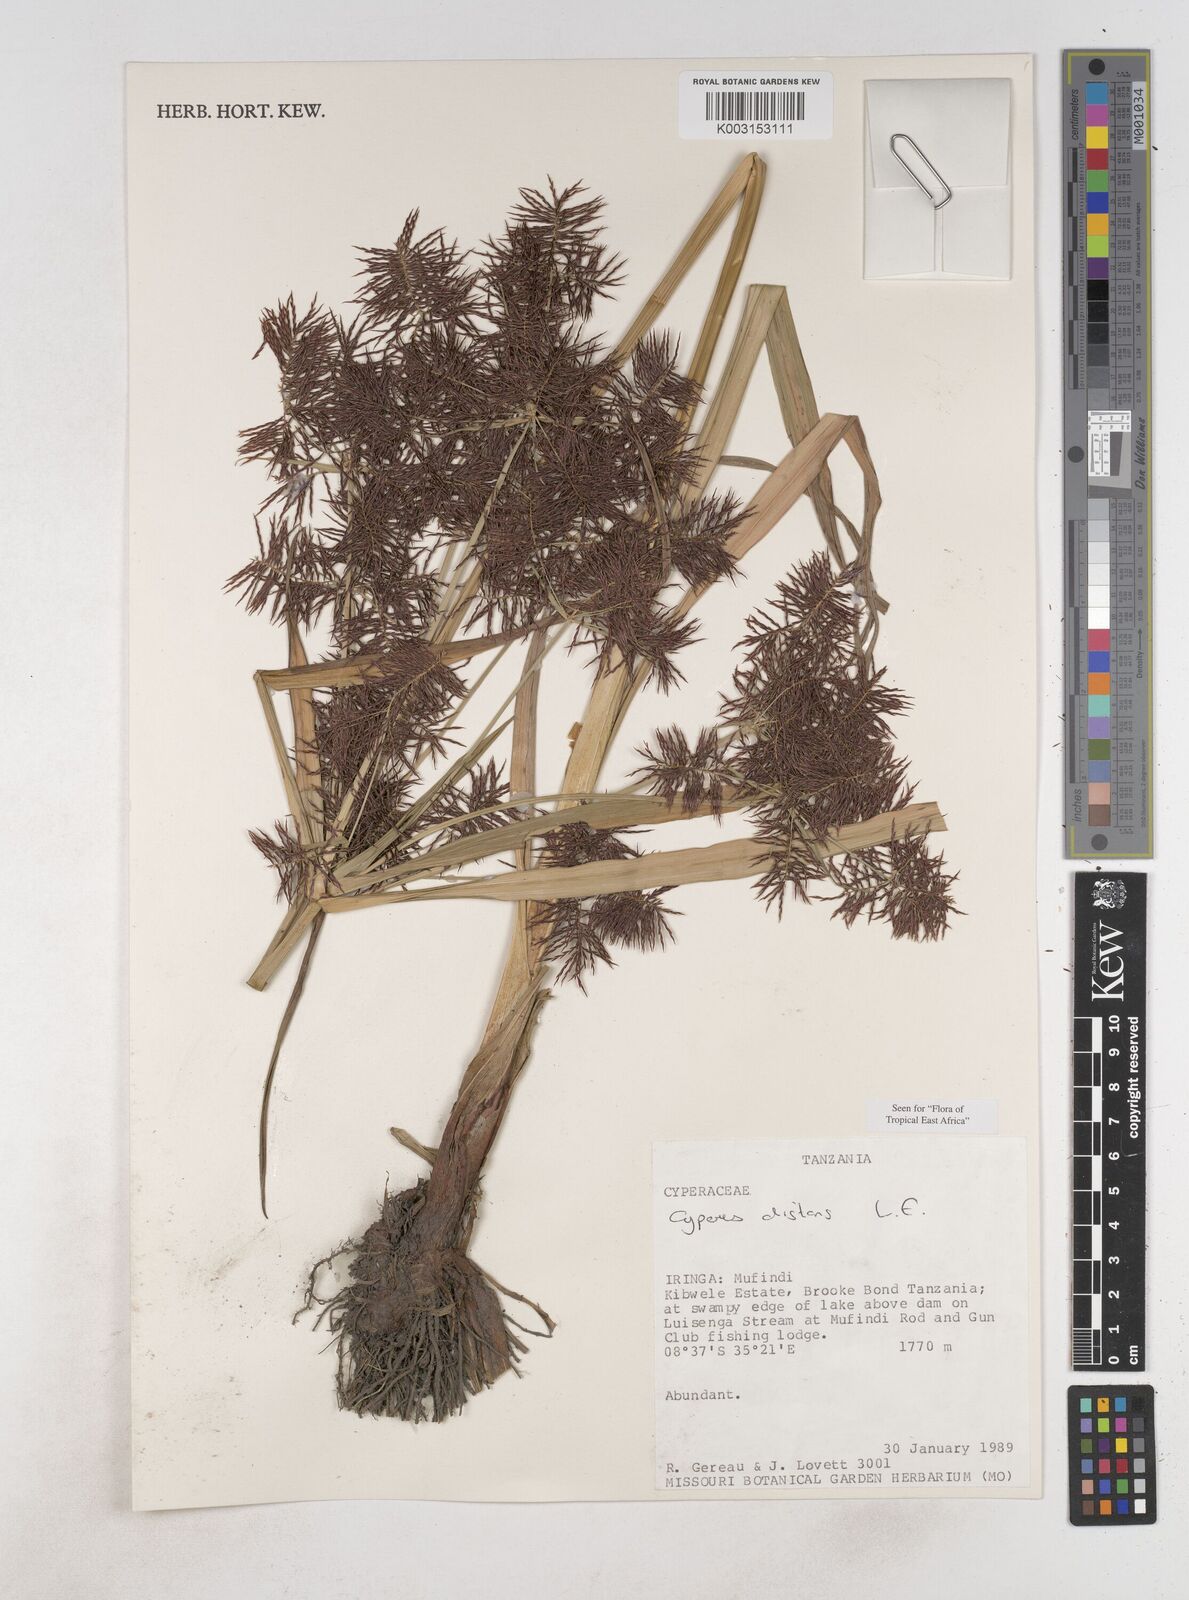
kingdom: Plantae
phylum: Tracheophyta
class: Liliopsida
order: Poales
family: Cyperaceae
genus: Cyperus
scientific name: Cyperus distans
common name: Slender cyperus
